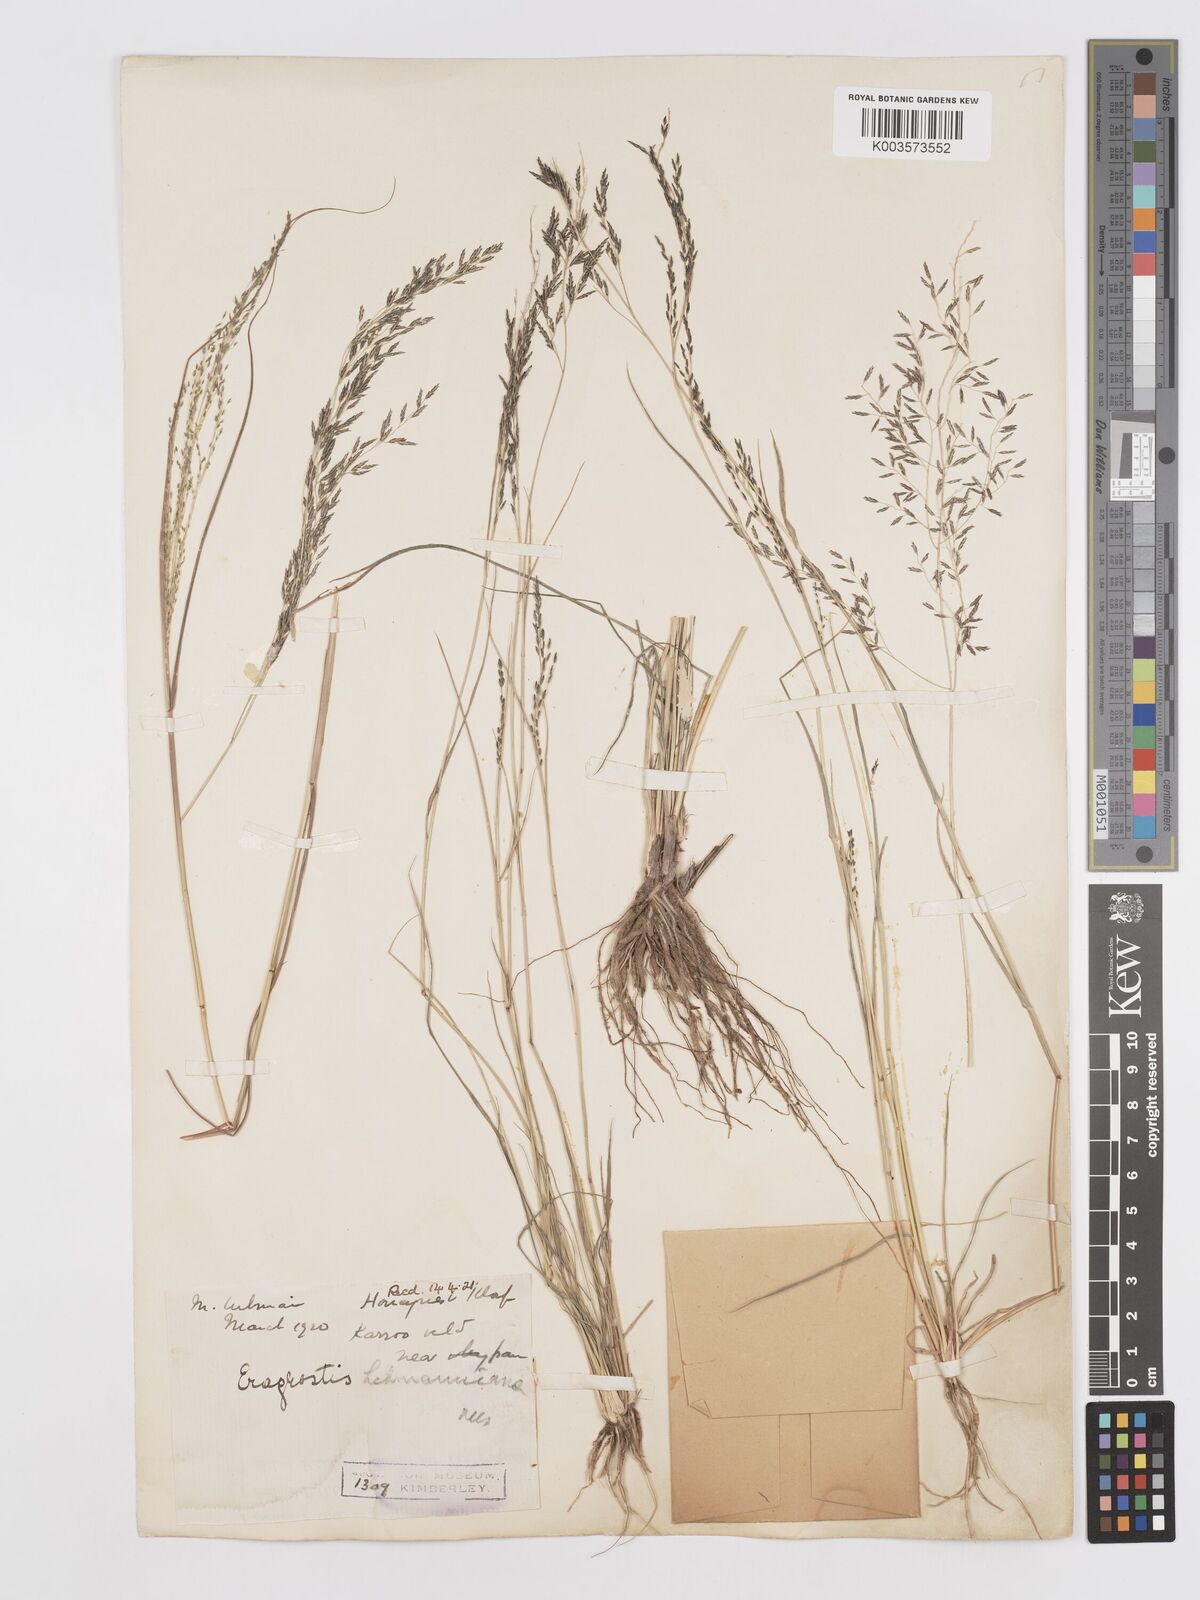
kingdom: Plantae
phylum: Tracheophyta
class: Liliopsida
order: Poales
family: Poaceae
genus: Eragrostis
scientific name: Eragrostis lehmanniana
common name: Lehmann lovegrass
